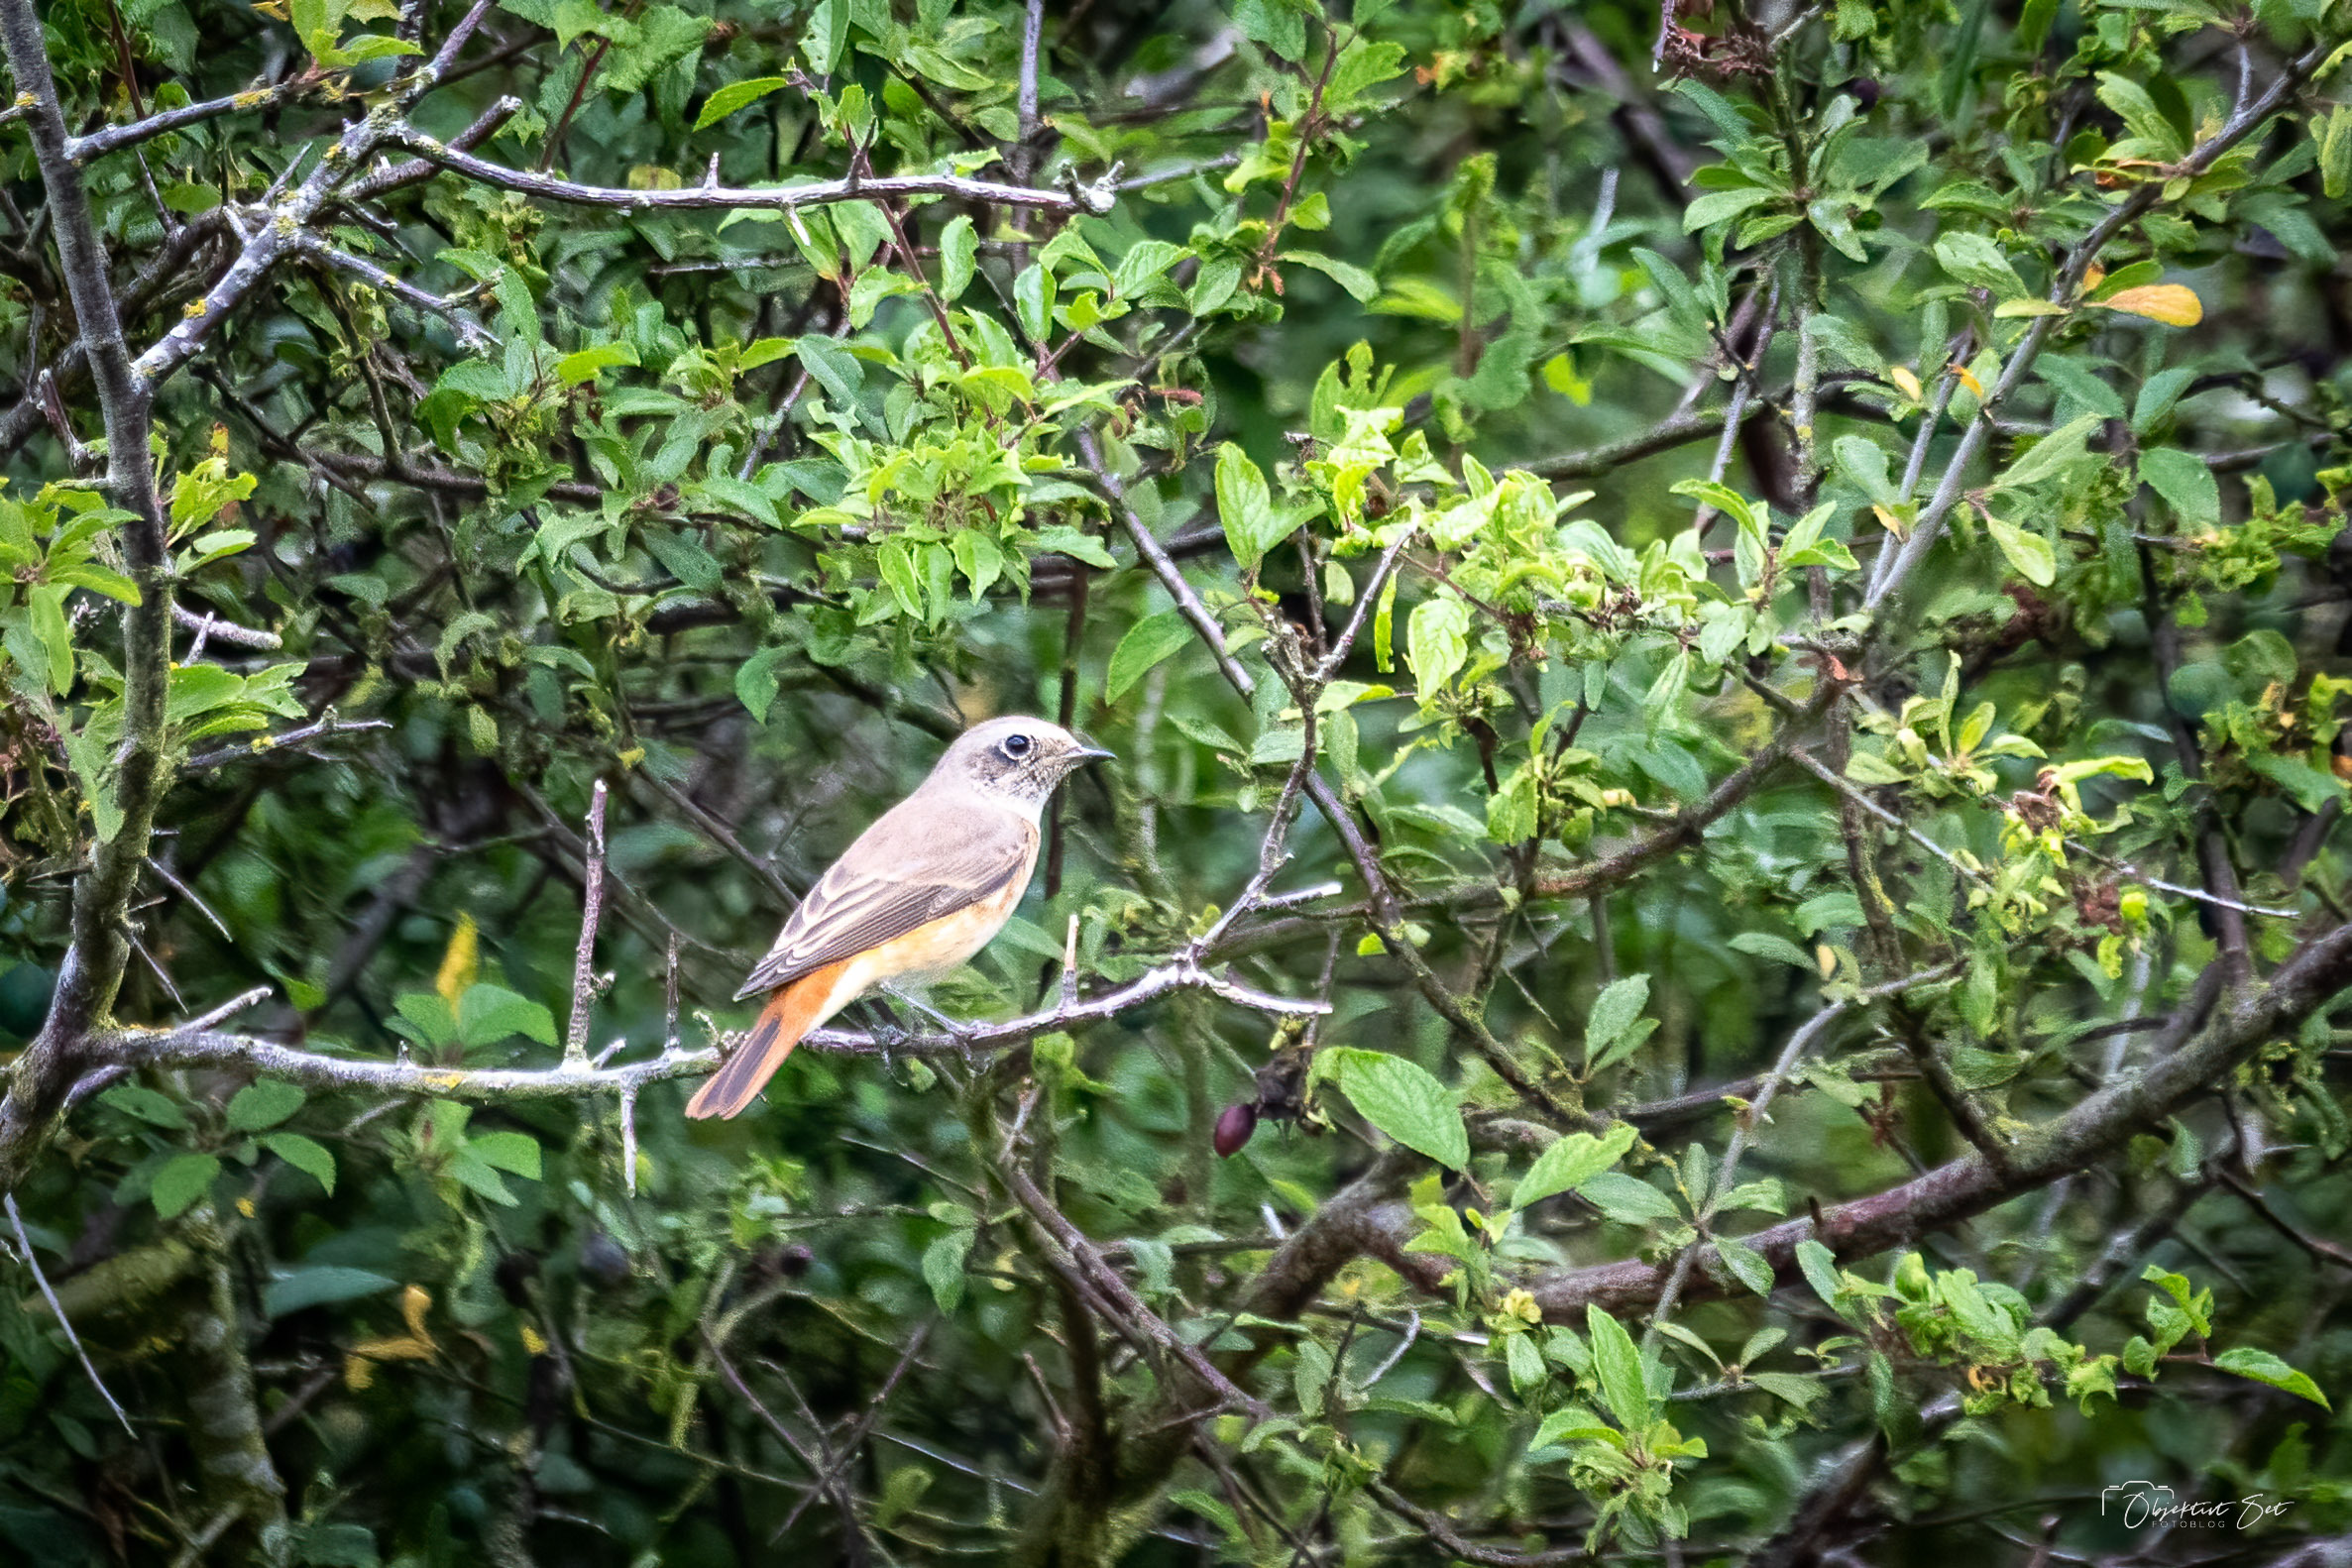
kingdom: Animalia
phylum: Chordata
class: Aves
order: Passeriformes
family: Muscicapidae
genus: Phoenicurus
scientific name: Phoenicurus phoenicurus
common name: Rødstjert
